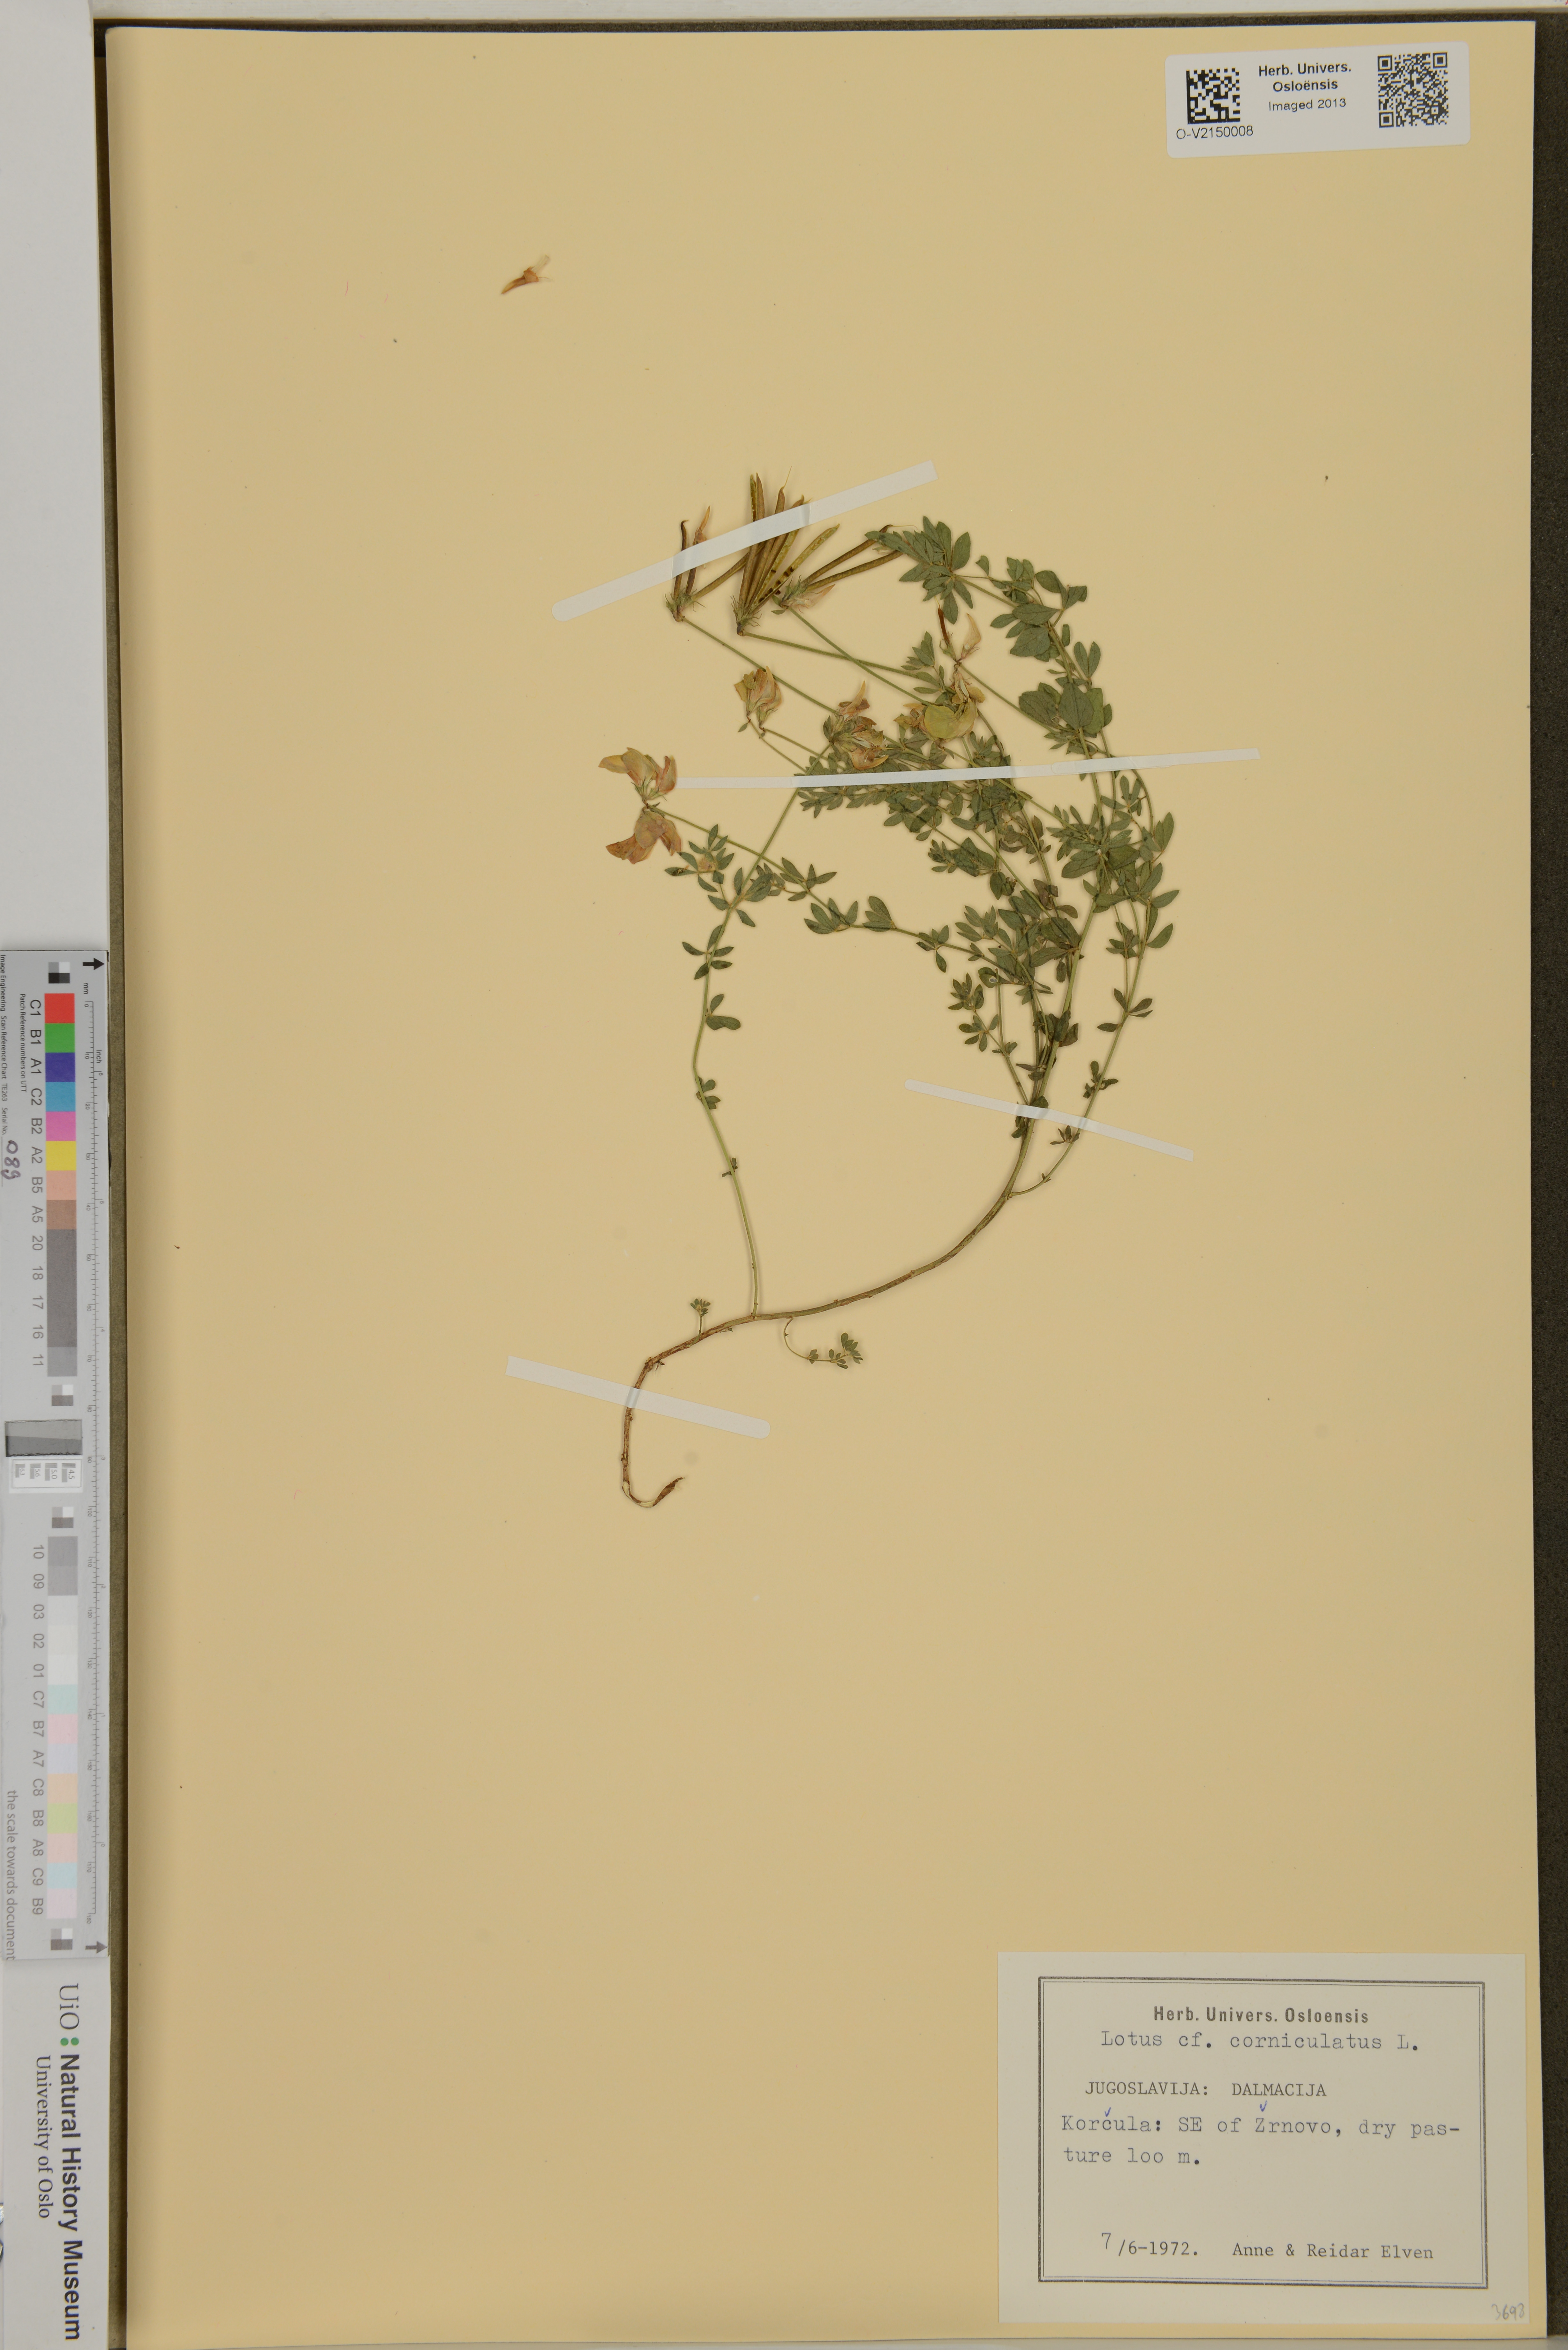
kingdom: Plantae
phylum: Tracheophyta
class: Magnoliopsida
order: Fabales
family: Fabaceae
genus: Lotus
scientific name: Lotus corniculatus
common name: Common bird's-foot-trefoil
